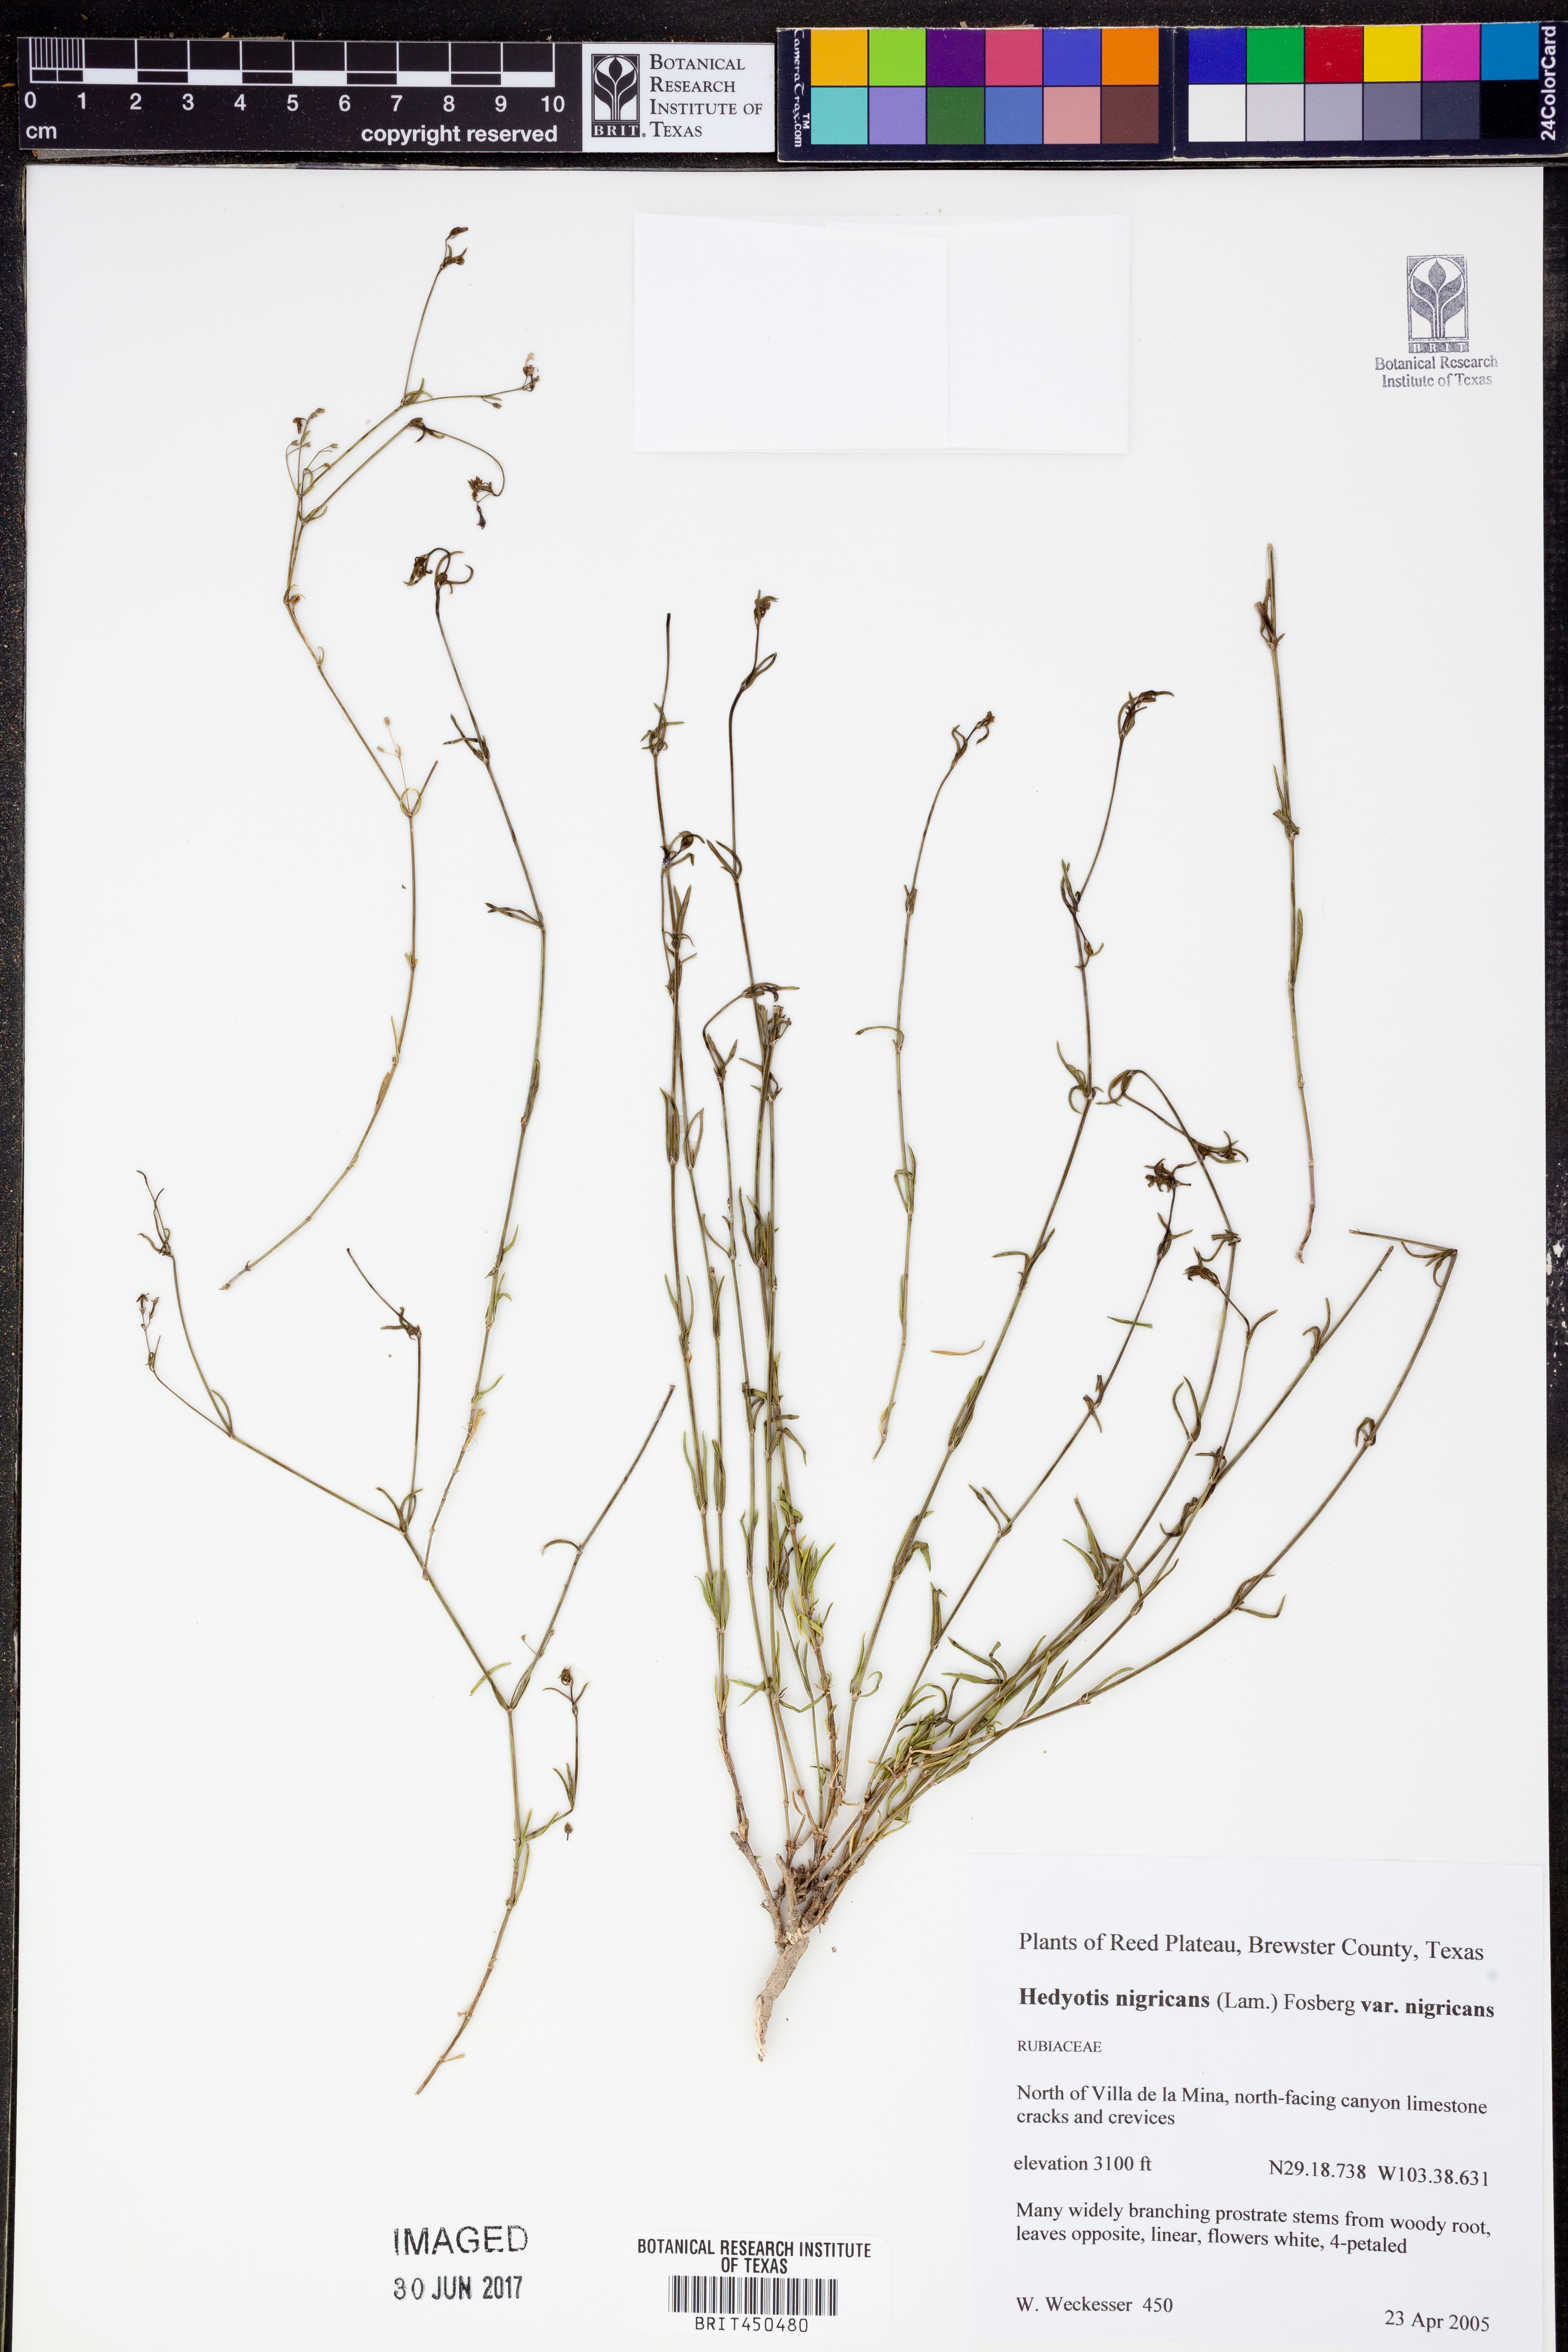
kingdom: Plantae
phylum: Tracheophyta
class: Magnoliopsida
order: Gentianales
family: Rubiaceae
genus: Stenaria
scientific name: Stenaria nigricans
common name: Diamondflowers
